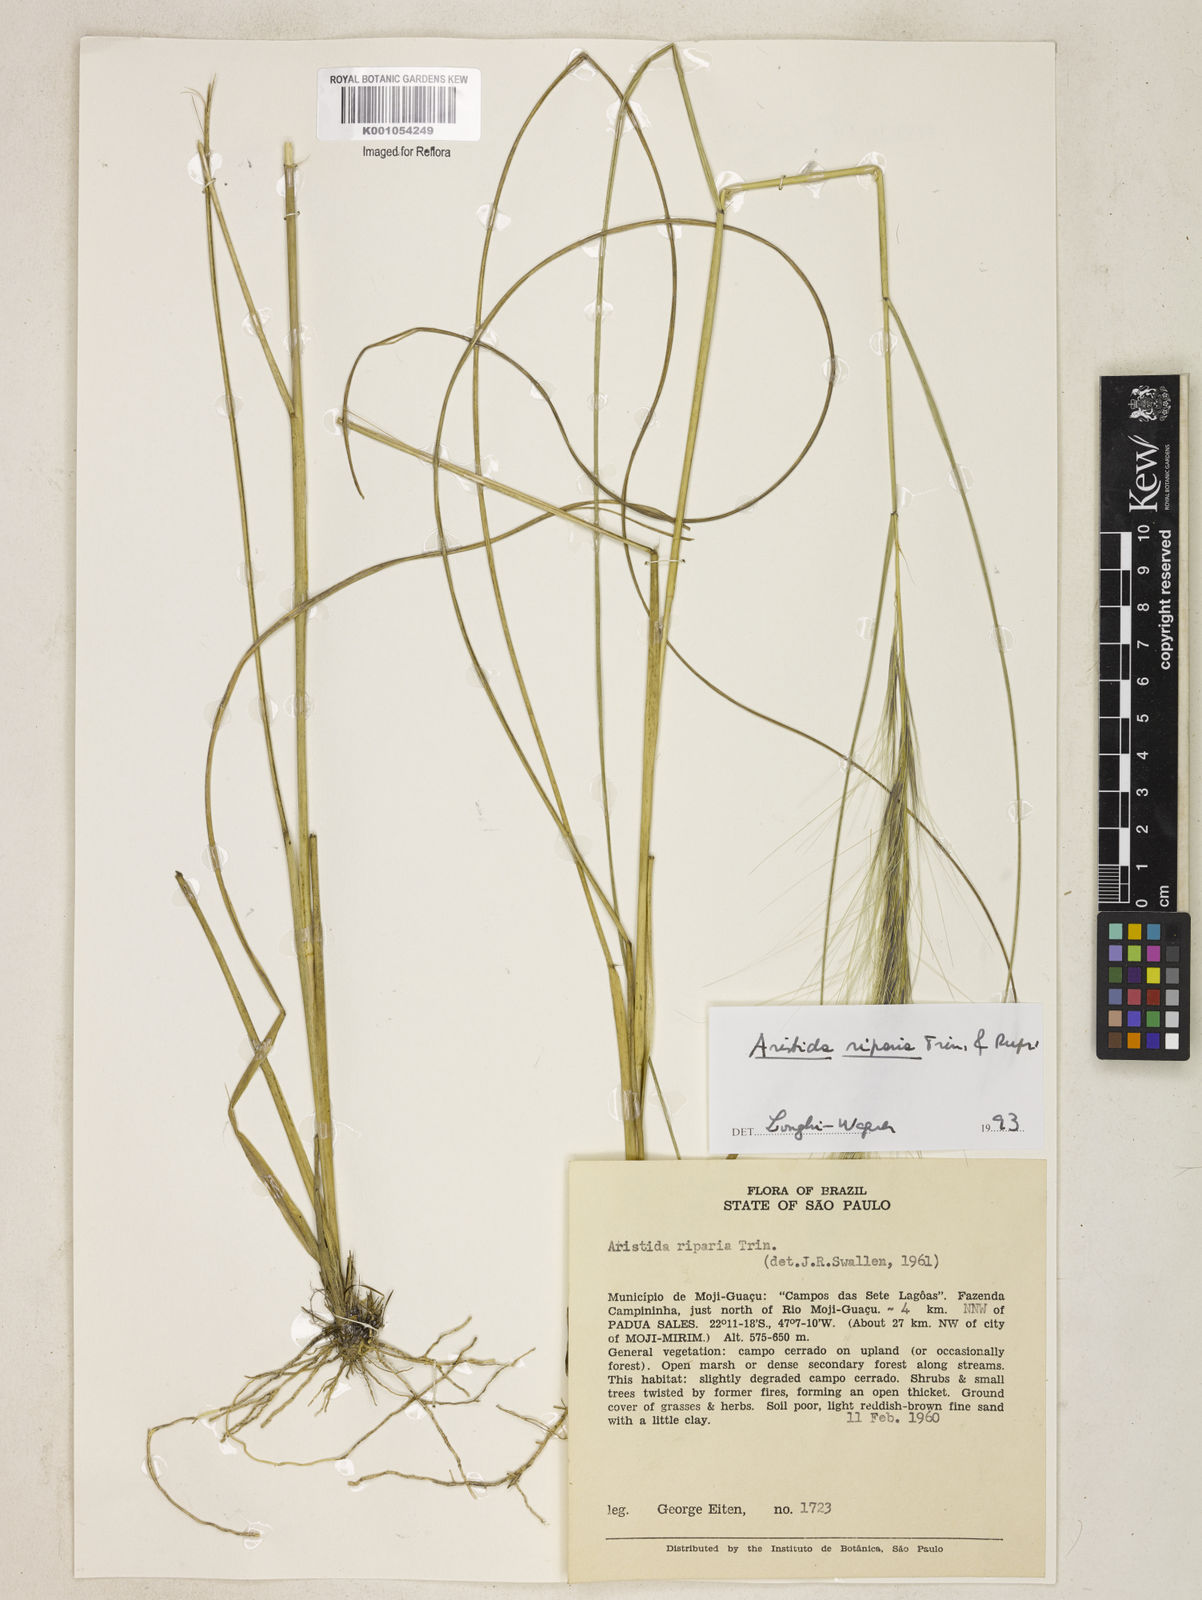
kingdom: Plantae
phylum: Tracheophyta
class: Liliopsida
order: Poales
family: Poaceae
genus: Aristida
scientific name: Aristida riparia
